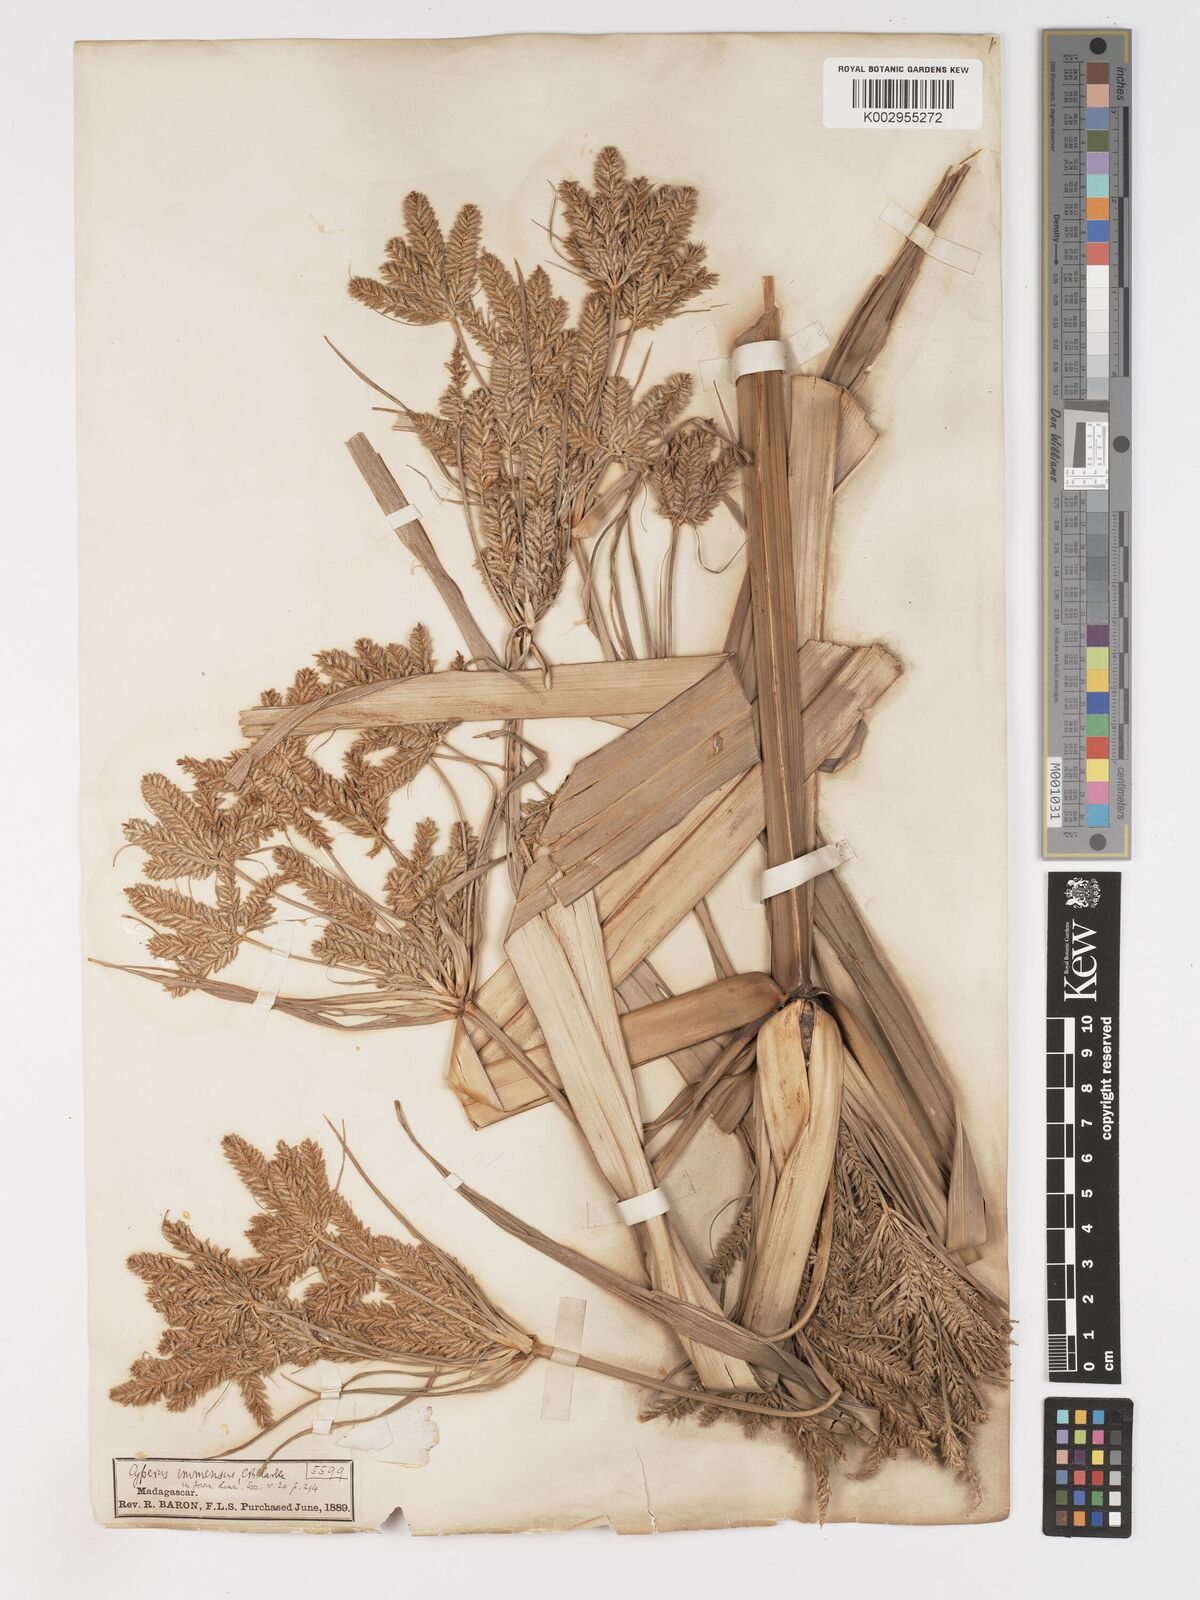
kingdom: Plantae
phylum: Tracheophyta
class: Liliopsida
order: Poales
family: Cyperaceae
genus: Cyperus
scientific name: Cyperus dives
